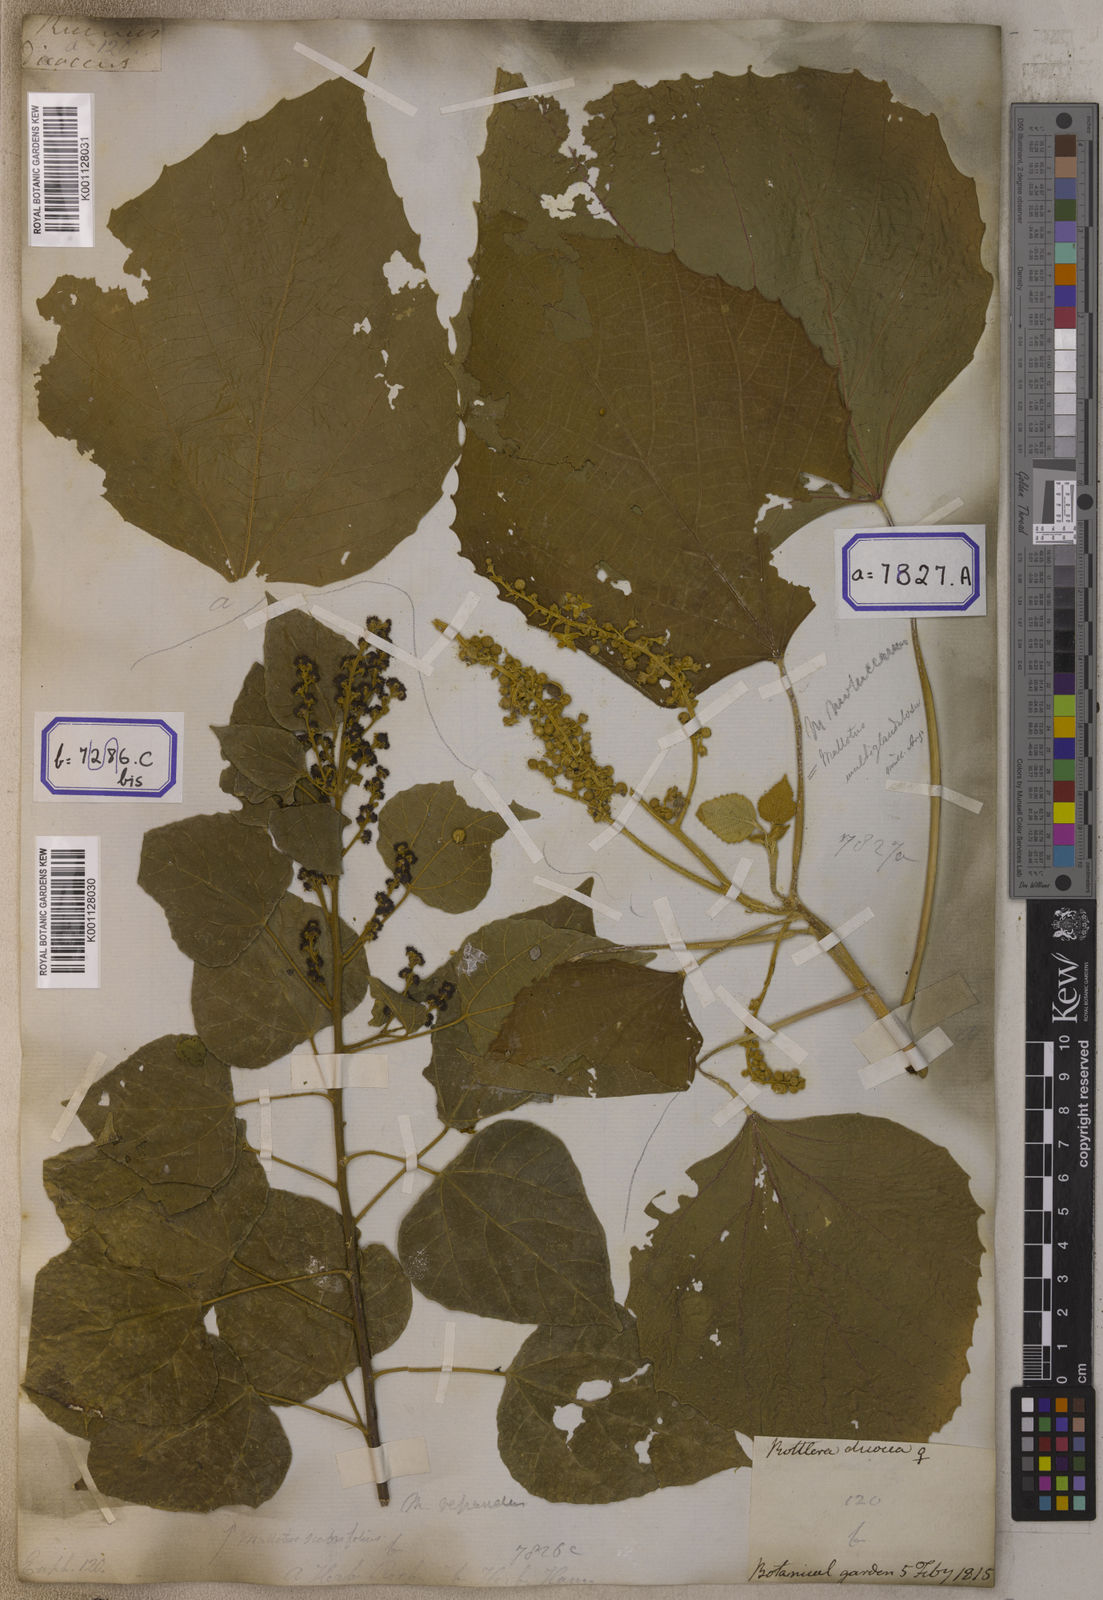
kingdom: Plantae
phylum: Tracheophyta
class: Magnoliopsida
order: Malpighiales
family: Euphorbiaceae
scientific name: Euphorbiaceae
